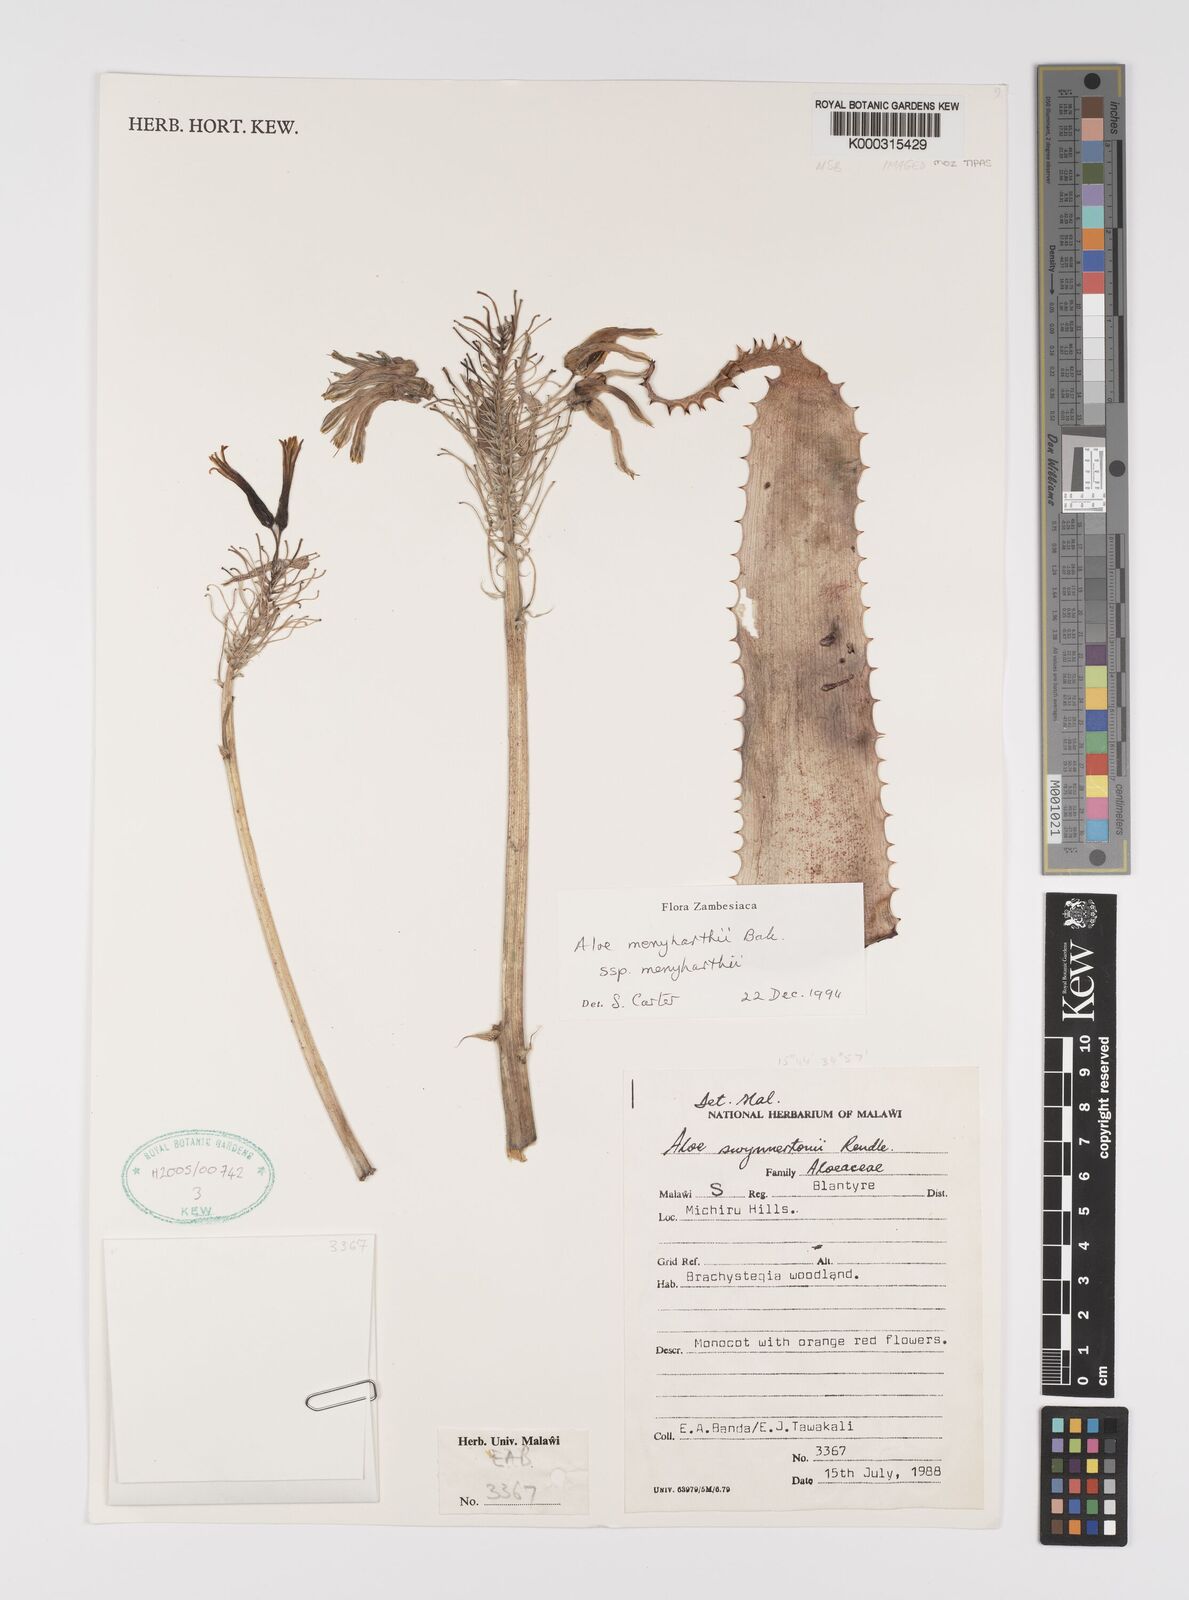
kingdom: Plantae
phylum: Tracheophyta
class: Liliopsida
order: Asparagales
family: Asphodelaceae
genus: Aloe
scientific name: Aloe menyharthii
